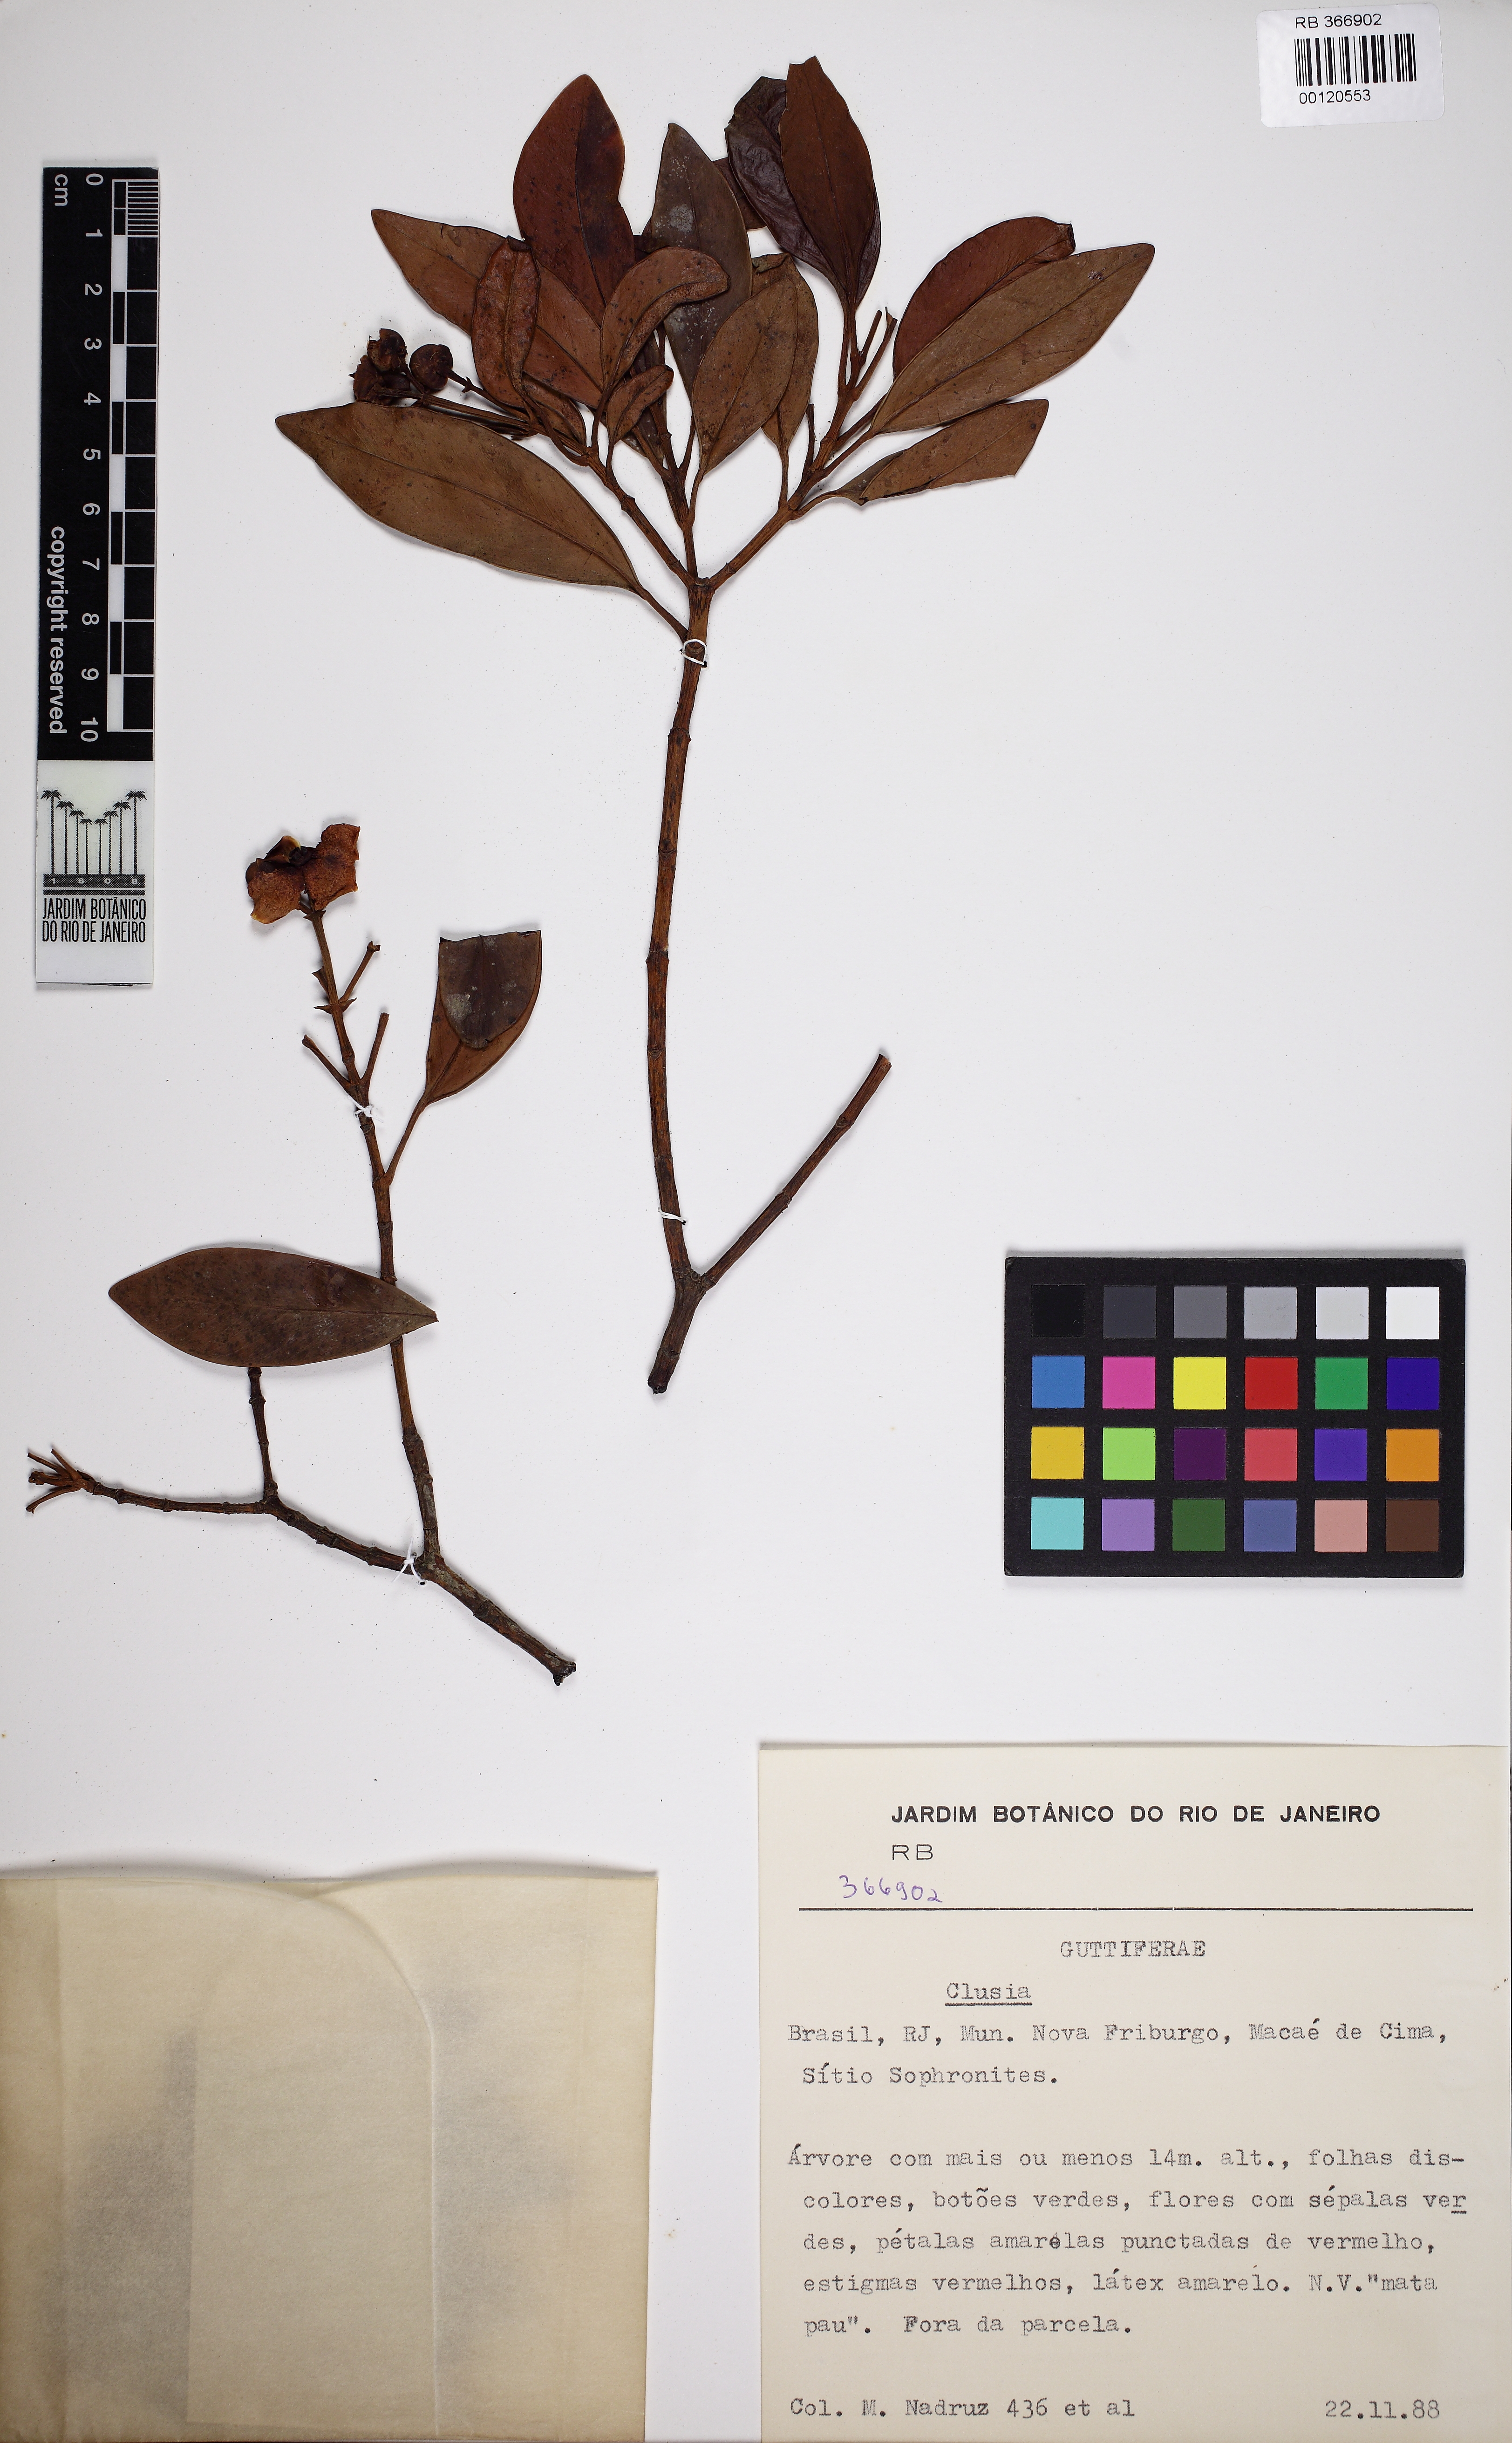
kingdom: Plantae
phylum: Tracheophyta
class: Magnoliopsida
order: Malpighiales
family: Clusiaceae
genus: Clusia
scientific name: Clusia studartiana
